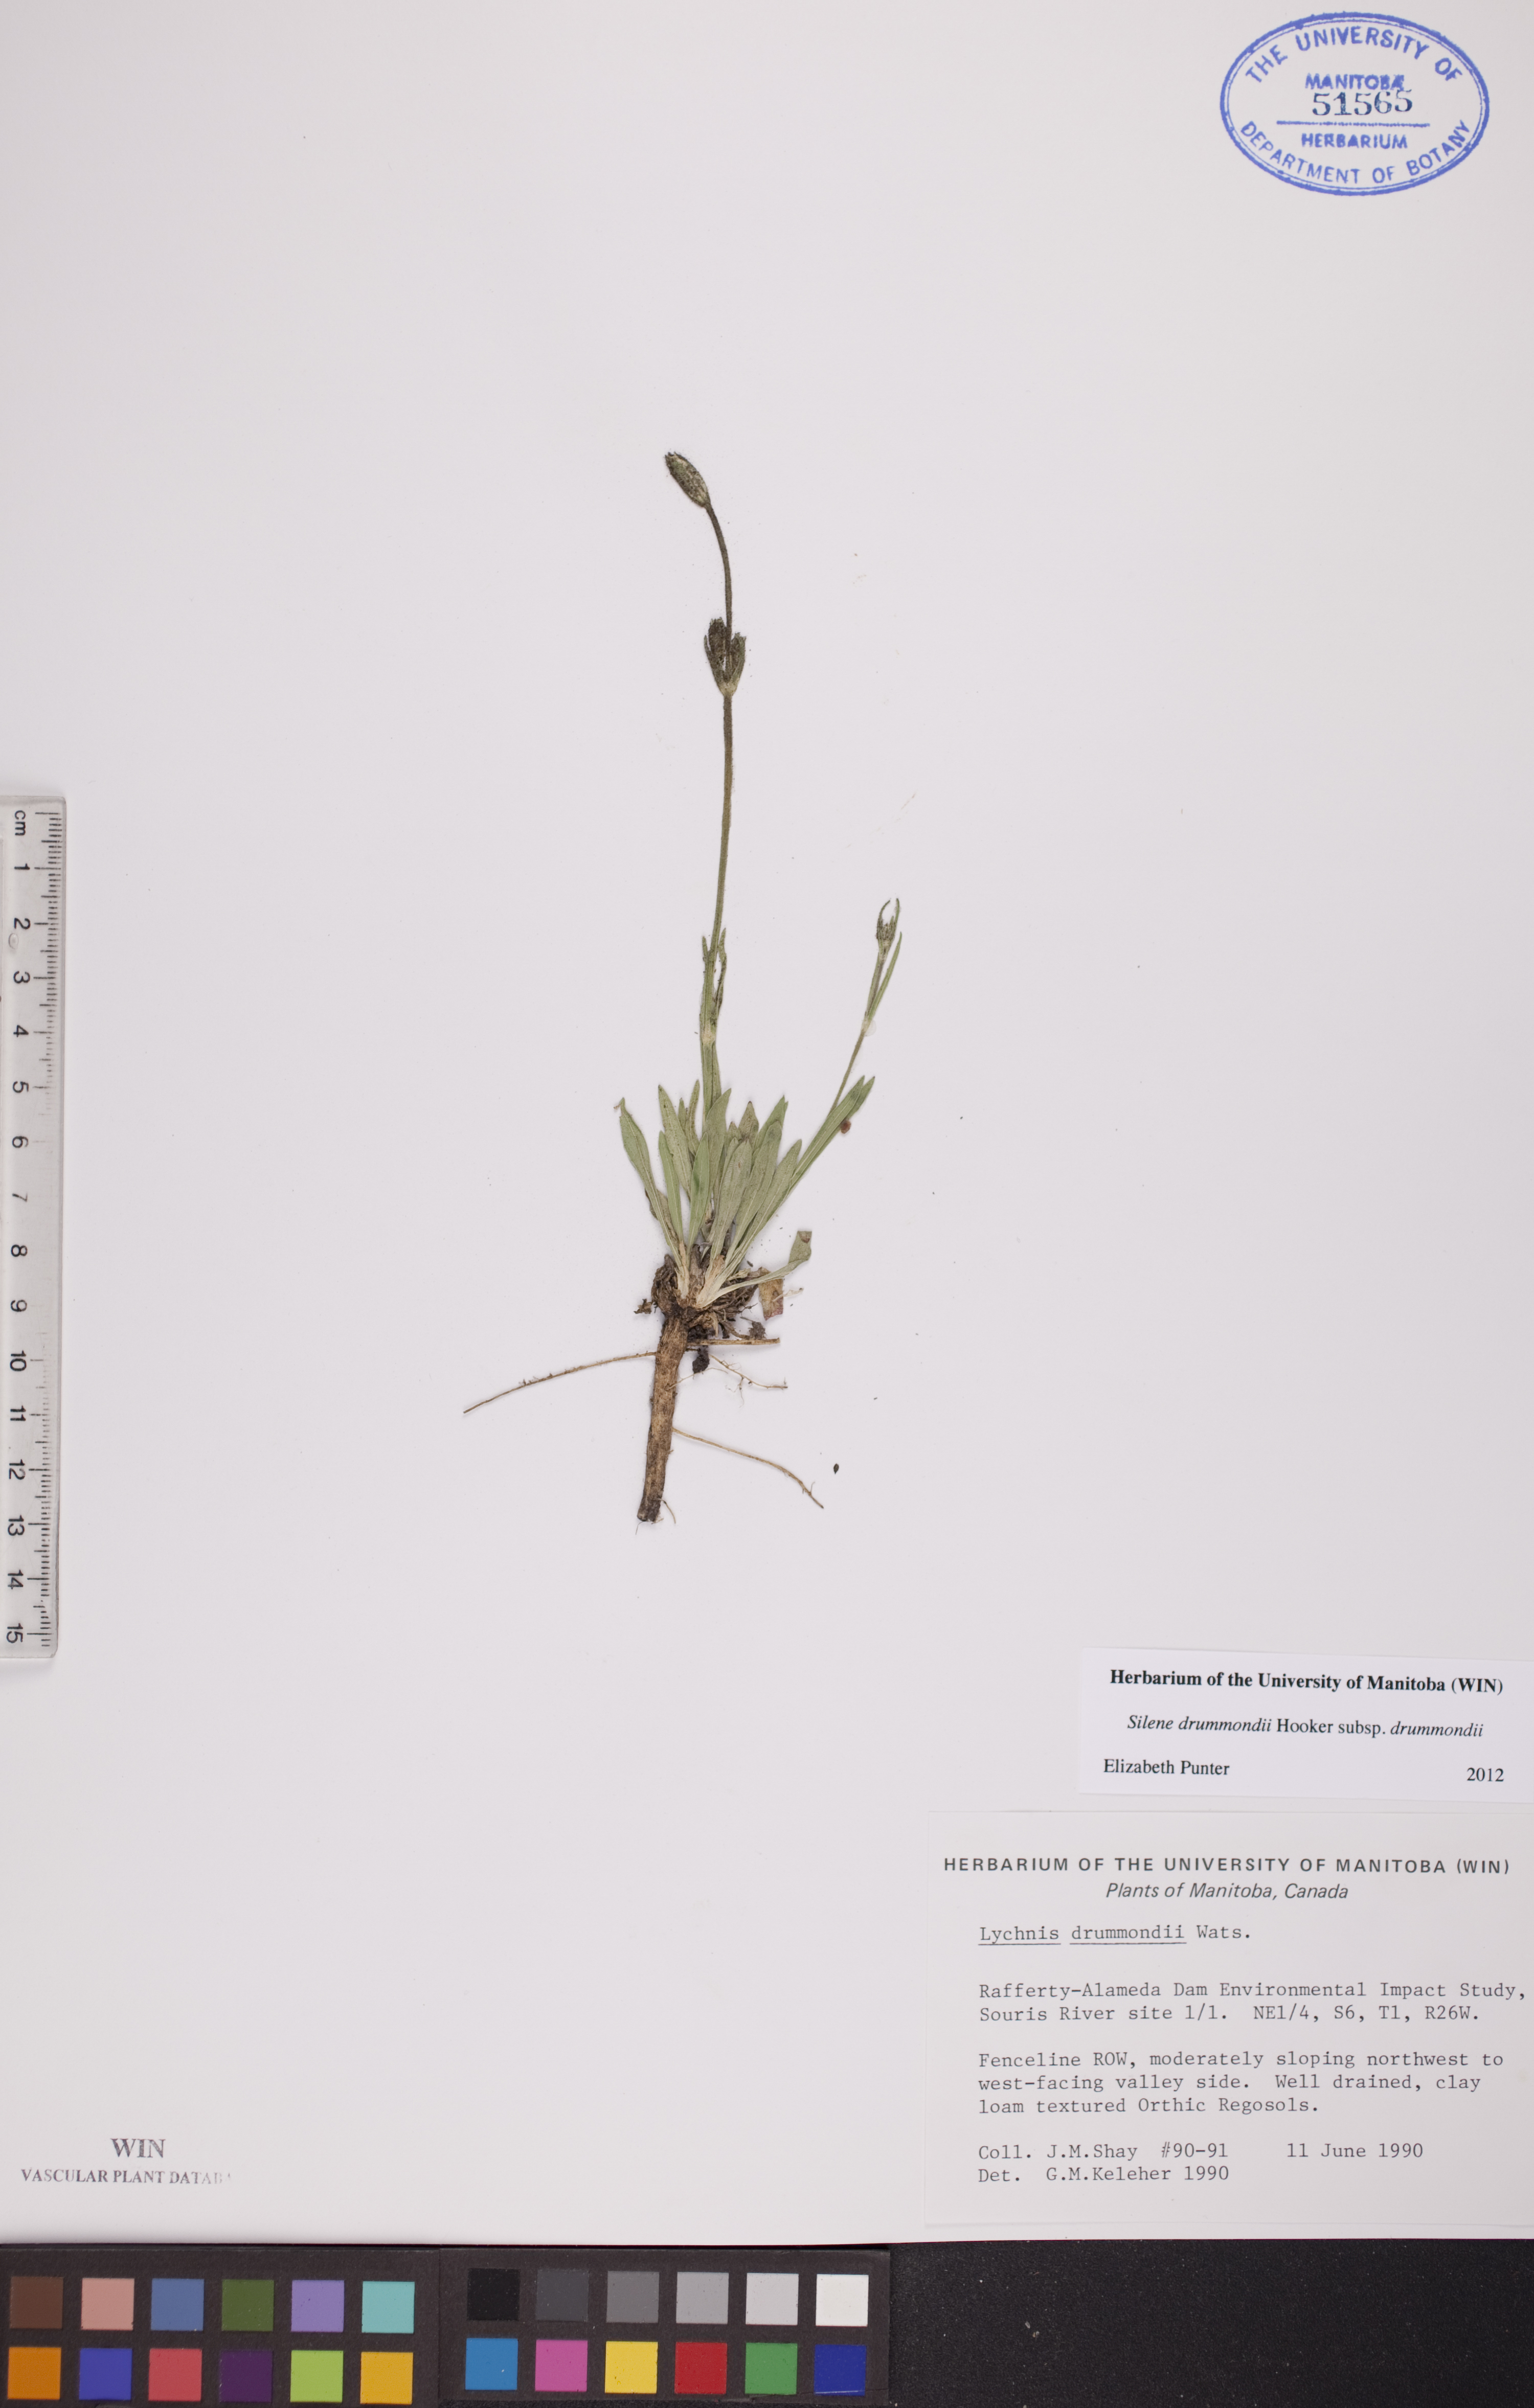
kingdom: Plantae
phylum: Tracheophyta
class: Magnoliopsida
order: Caryophyllales
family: Caryophyllaceae
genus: Silene
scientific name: Silene drummondii
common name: Drummond's catchfly
